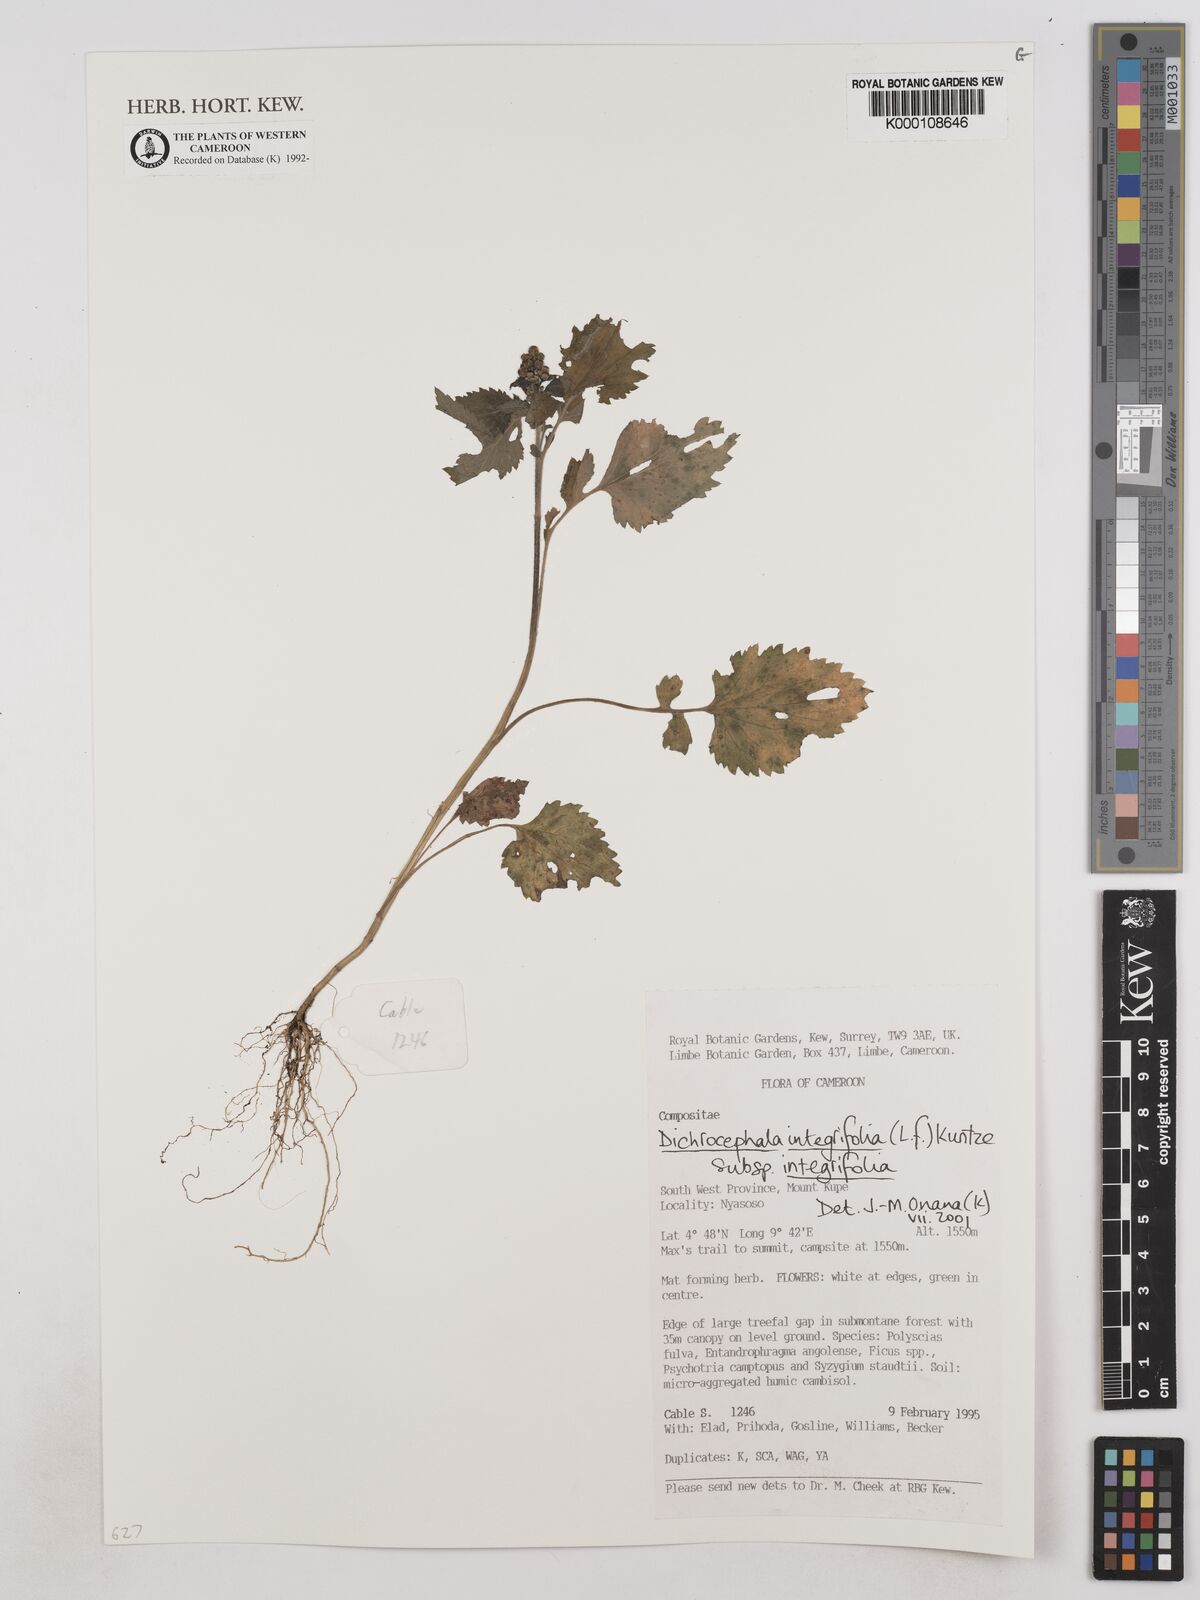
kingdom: Plantae
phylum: Tracheophyta
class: Magnoliopsida
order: Asterales
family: Asteraceae
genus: Dichrocephala
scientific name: Dichrocephala integrifolia
